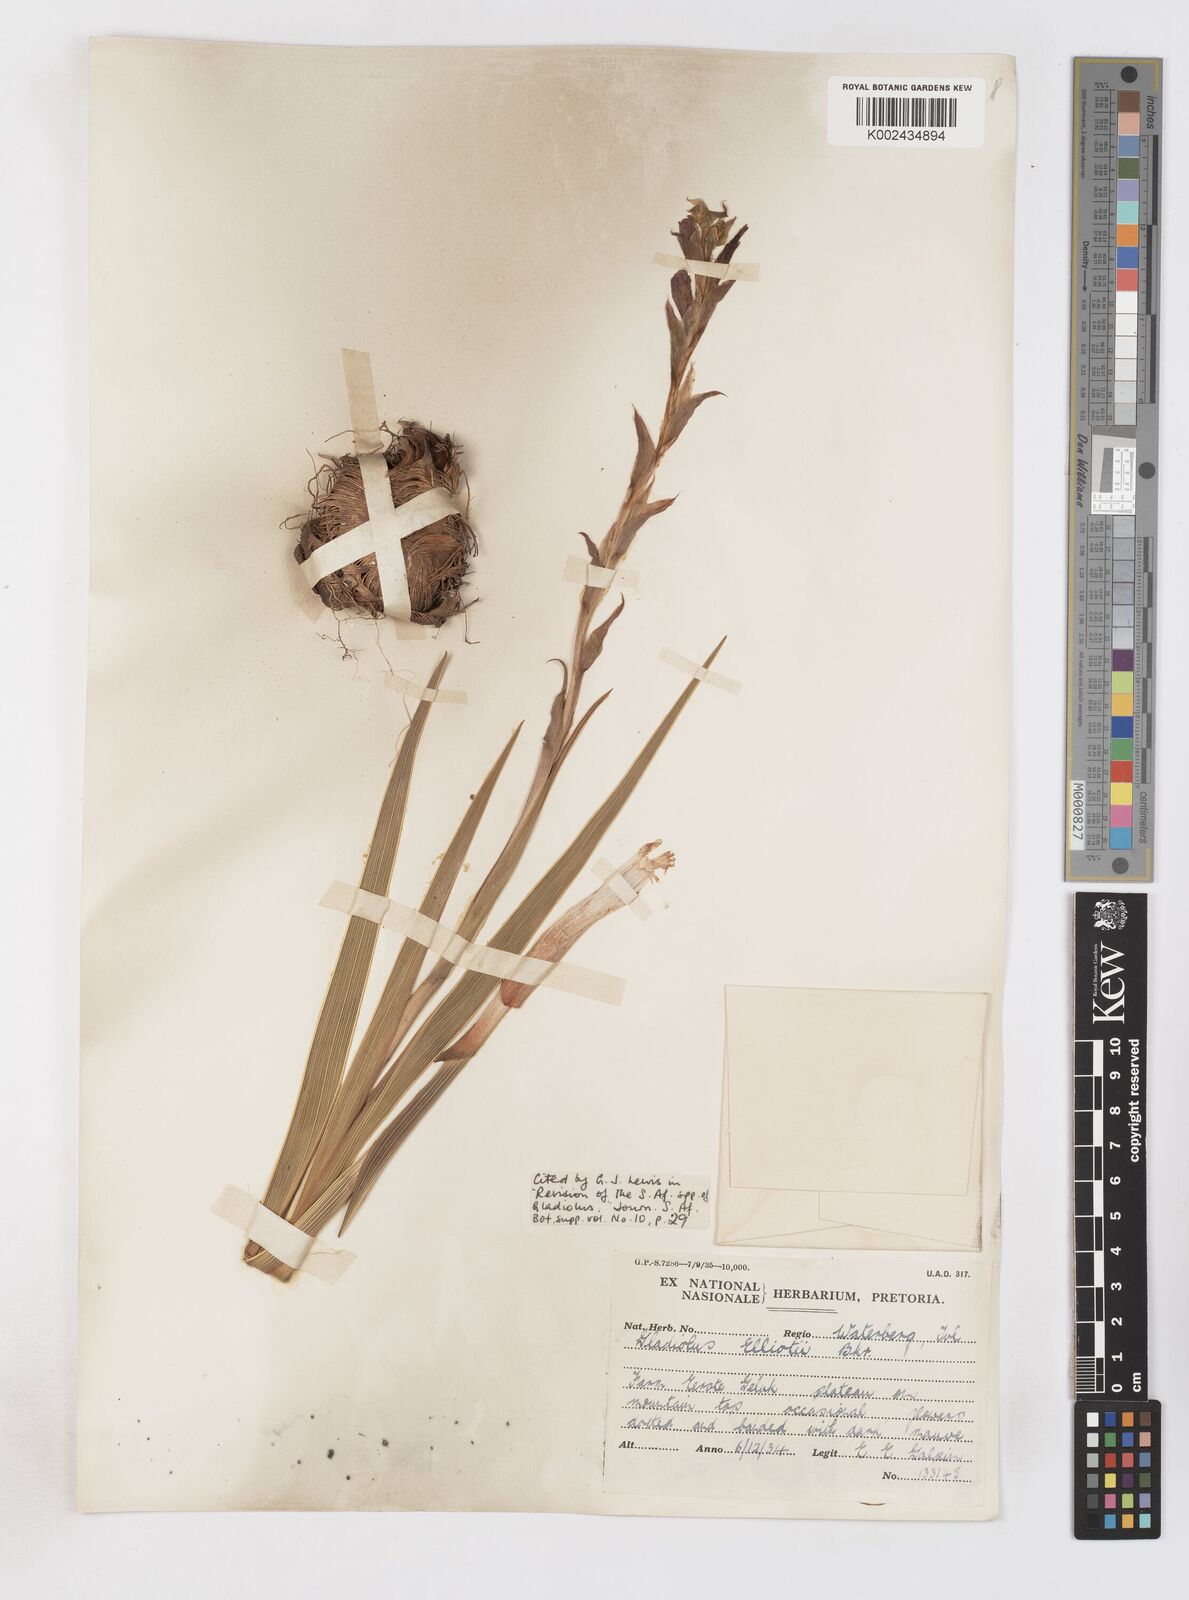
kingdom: Plantae
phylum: Tracheophyta
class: Liliopsida
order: Asparagales
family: Iridaceae
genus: Gladiolus
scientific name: Gladiolus elliotii
